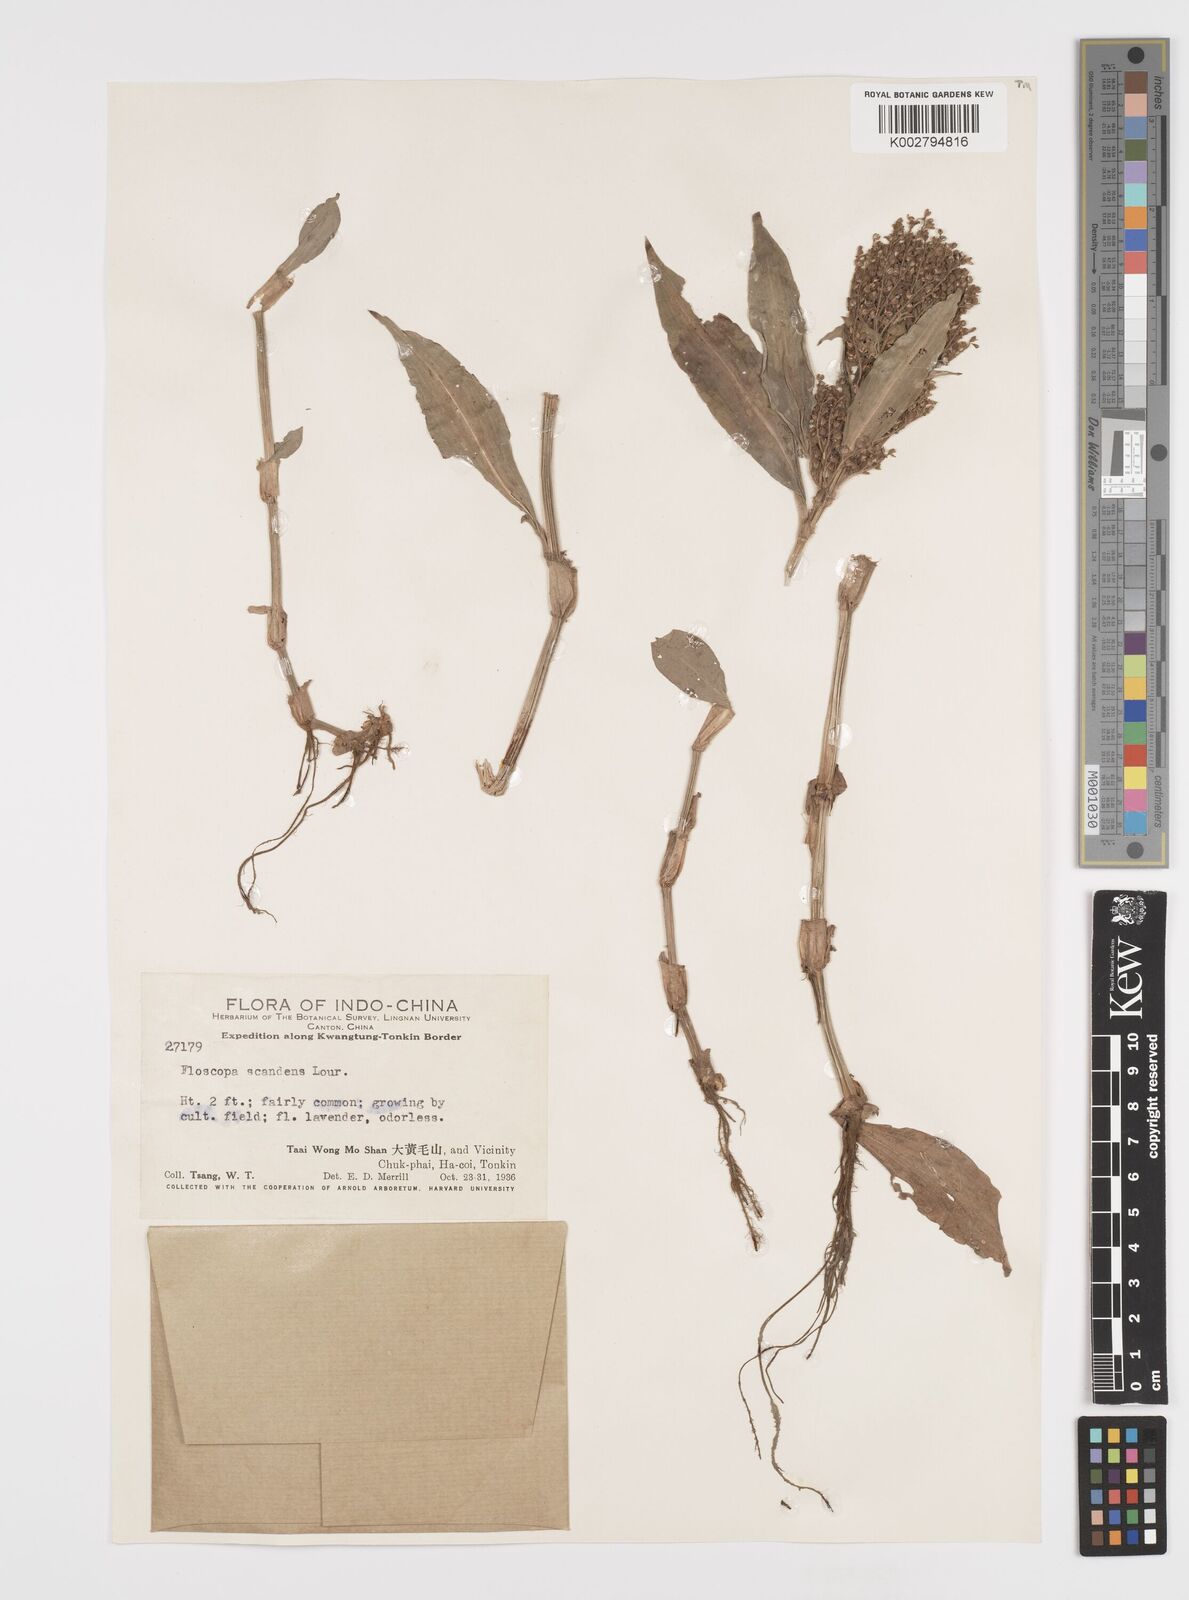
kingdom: Plantae
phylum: Tracheophyta
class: Liliopsida
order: Commelinales
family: Commelinaceae
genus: Floscopa
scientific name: Floscopa scandens
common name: Climbing flower cup
